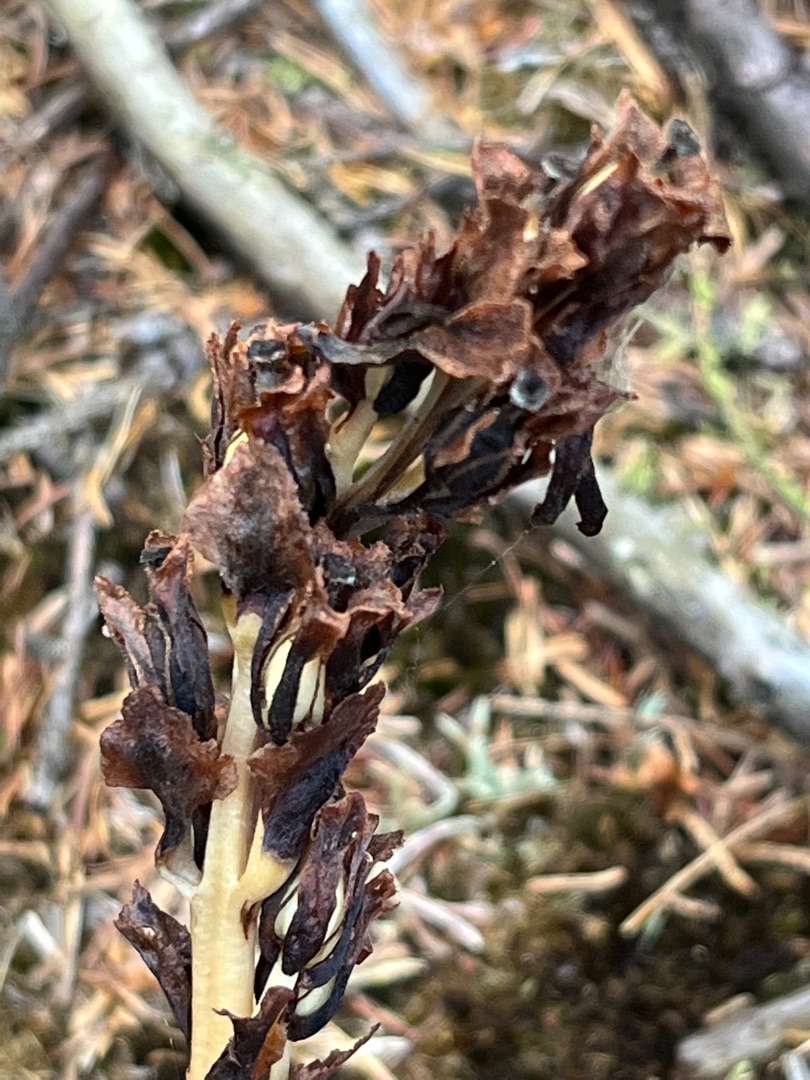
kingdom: Plantae
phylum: Tracheophyta
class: Magnoliopsida
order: Ericales
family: Ericaceae
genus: Hypopitys
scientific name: Hypopitys monotropa
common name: Snylterod
